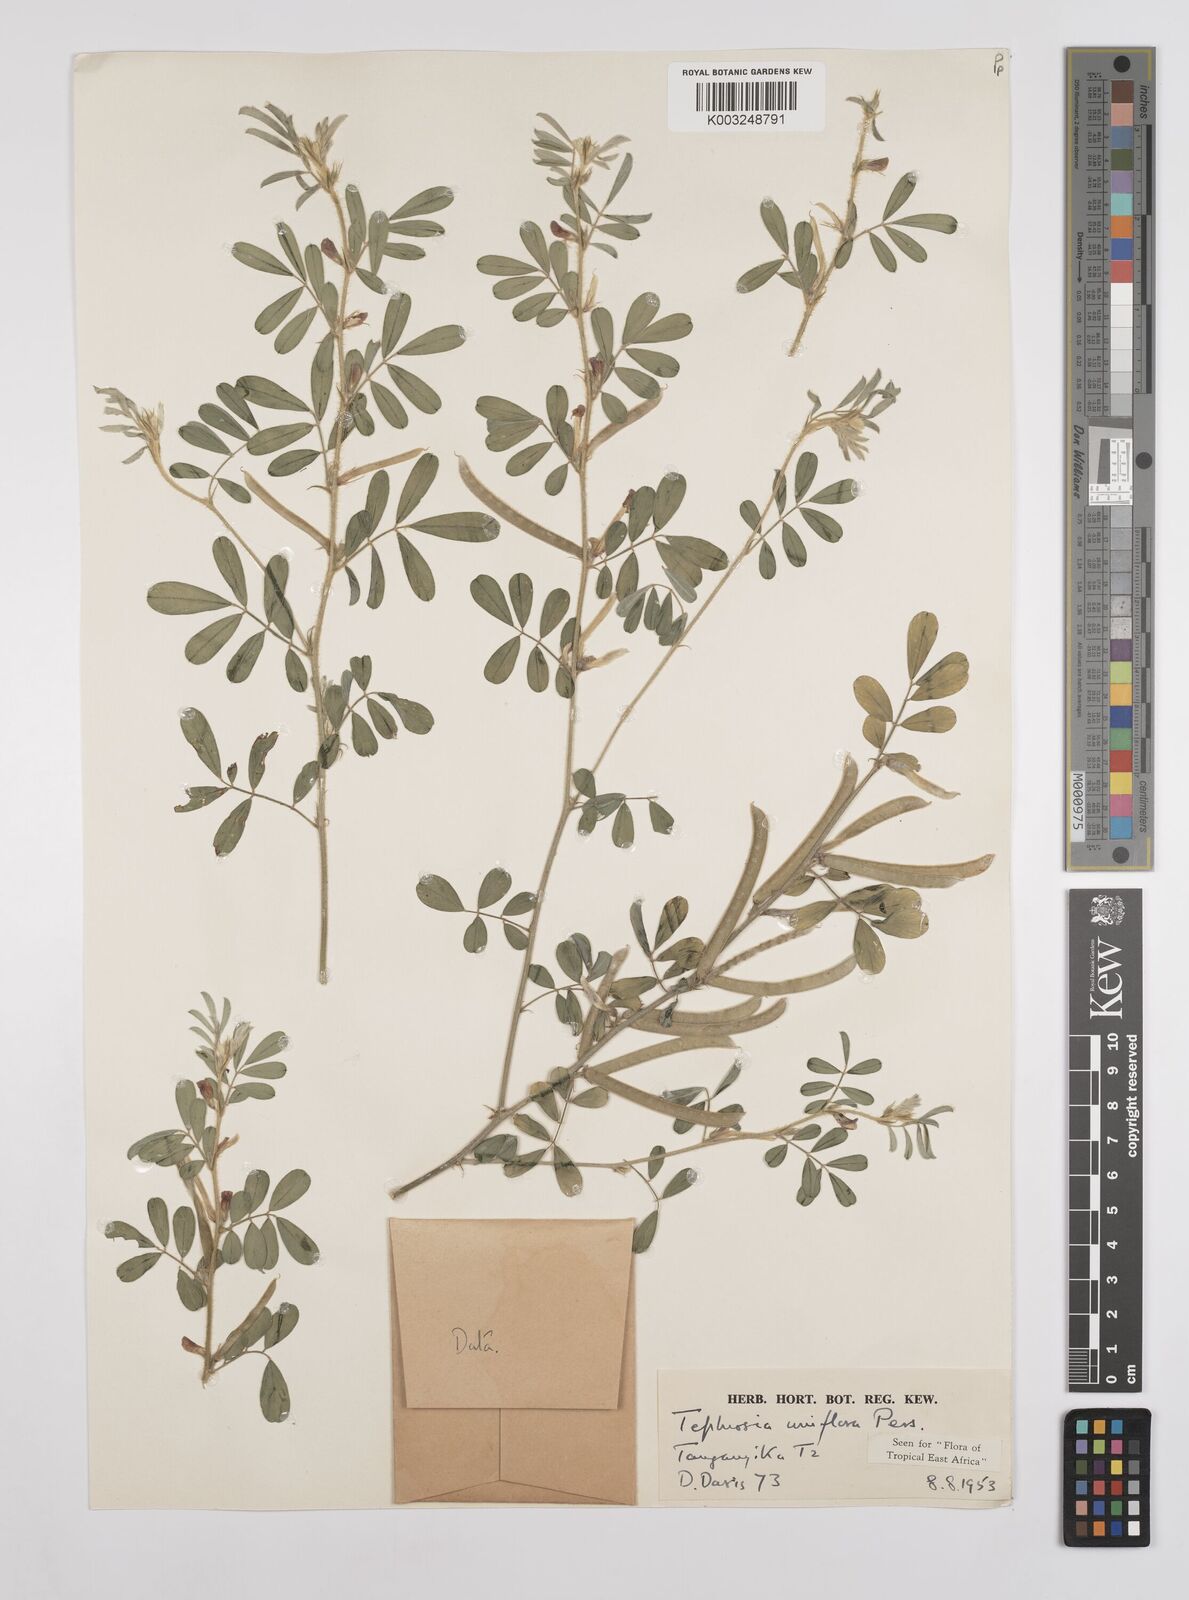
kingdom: Plantae
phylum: Tracheophyta
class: Magnoliopsida
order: Fabales
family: Fabaceae
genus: Tephrosia
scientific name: Tephrosia uniflora
